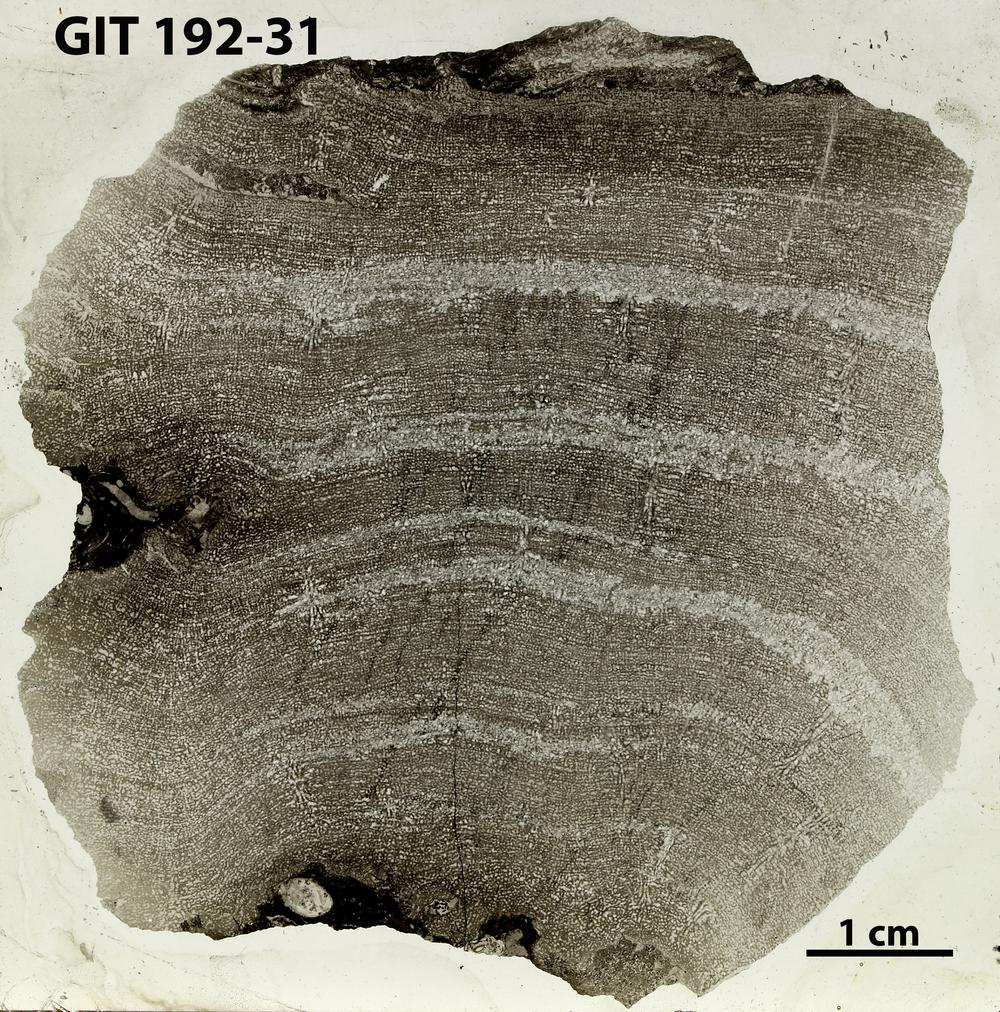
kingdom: Animalia
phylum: Porifera
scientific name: Porifera
